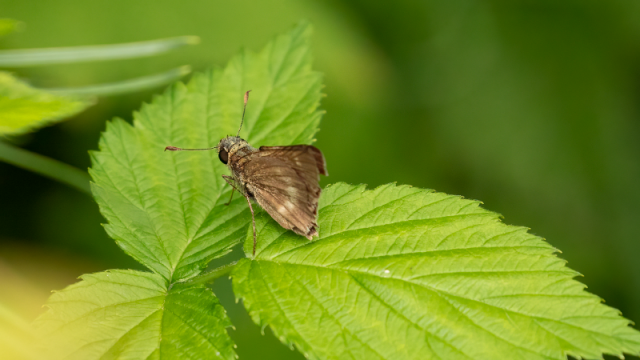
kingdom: Animalia
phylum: Arthropoda
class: Insecta
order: Lepidoptera
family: Hesperiidae
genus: Polites
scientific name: Polites
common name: Long Dash Skipper
